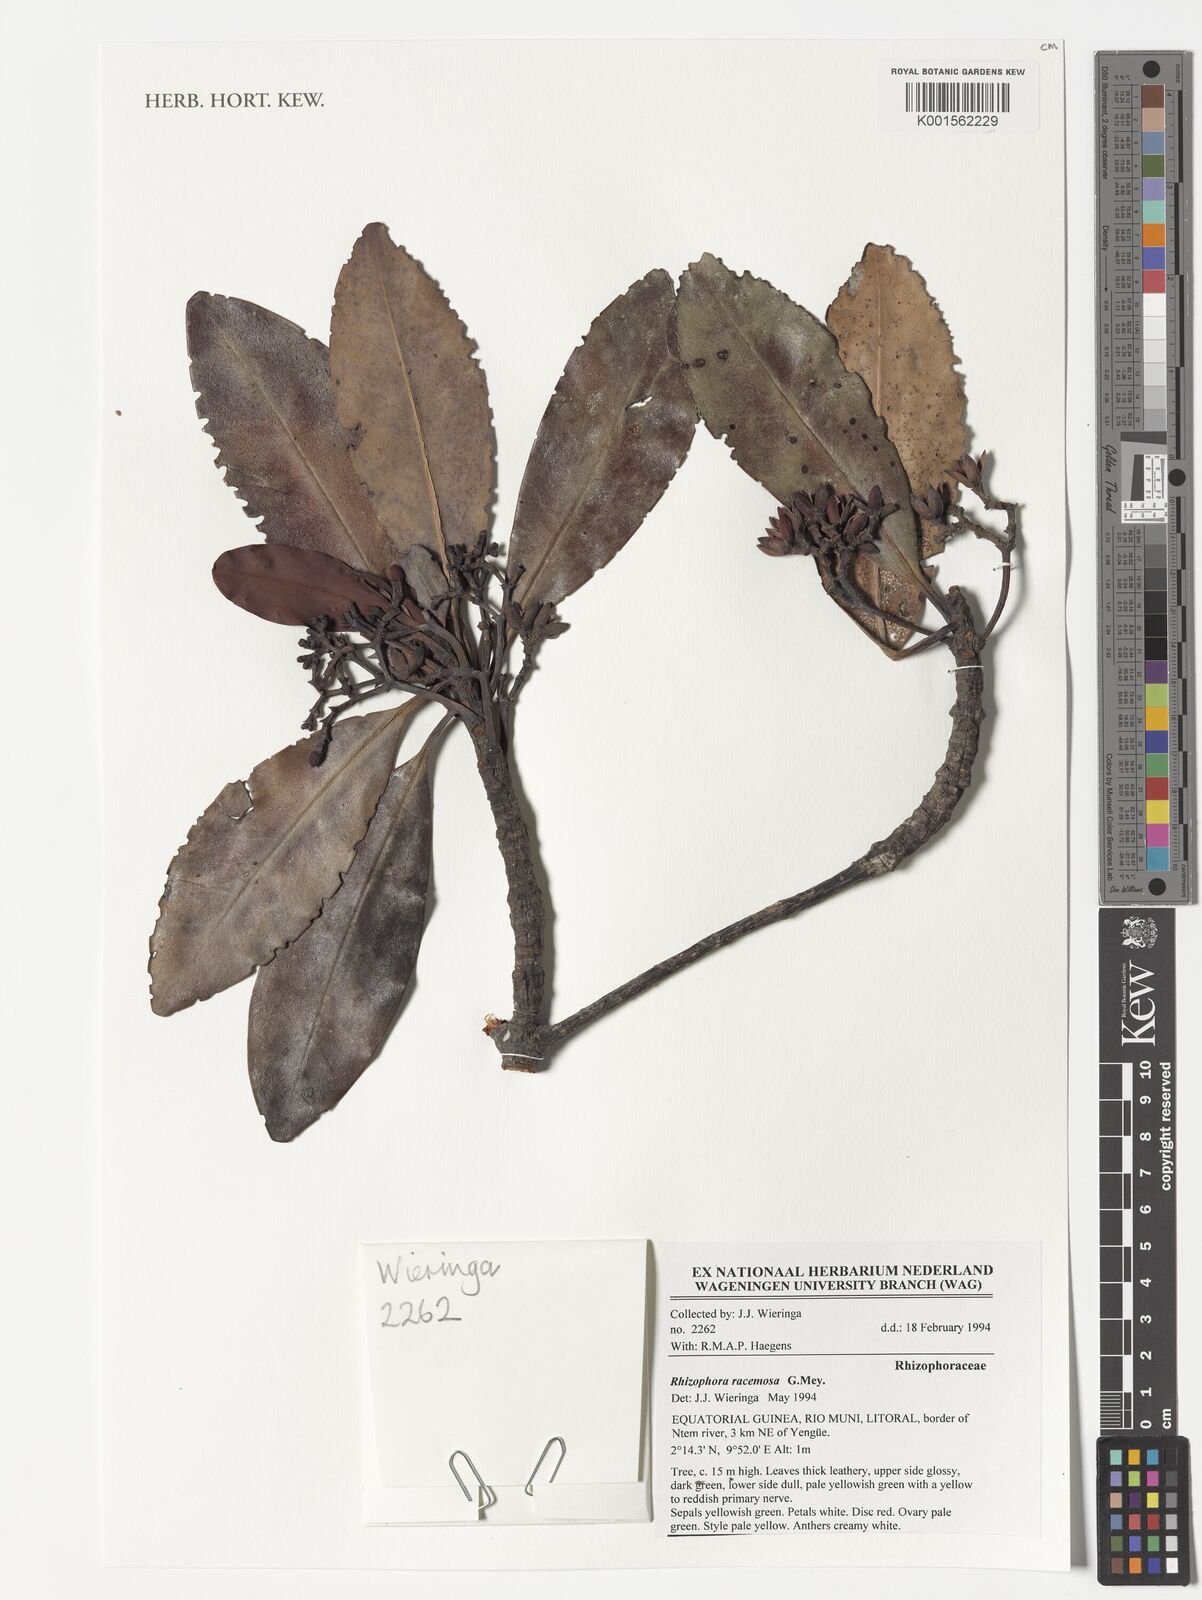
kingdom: Plantae
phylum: Tracheophyta
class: Magnoliopsida
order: Malpighiales
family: Rhizophoraceae
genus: Rhizophora
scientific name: Rhizophora racemosa
